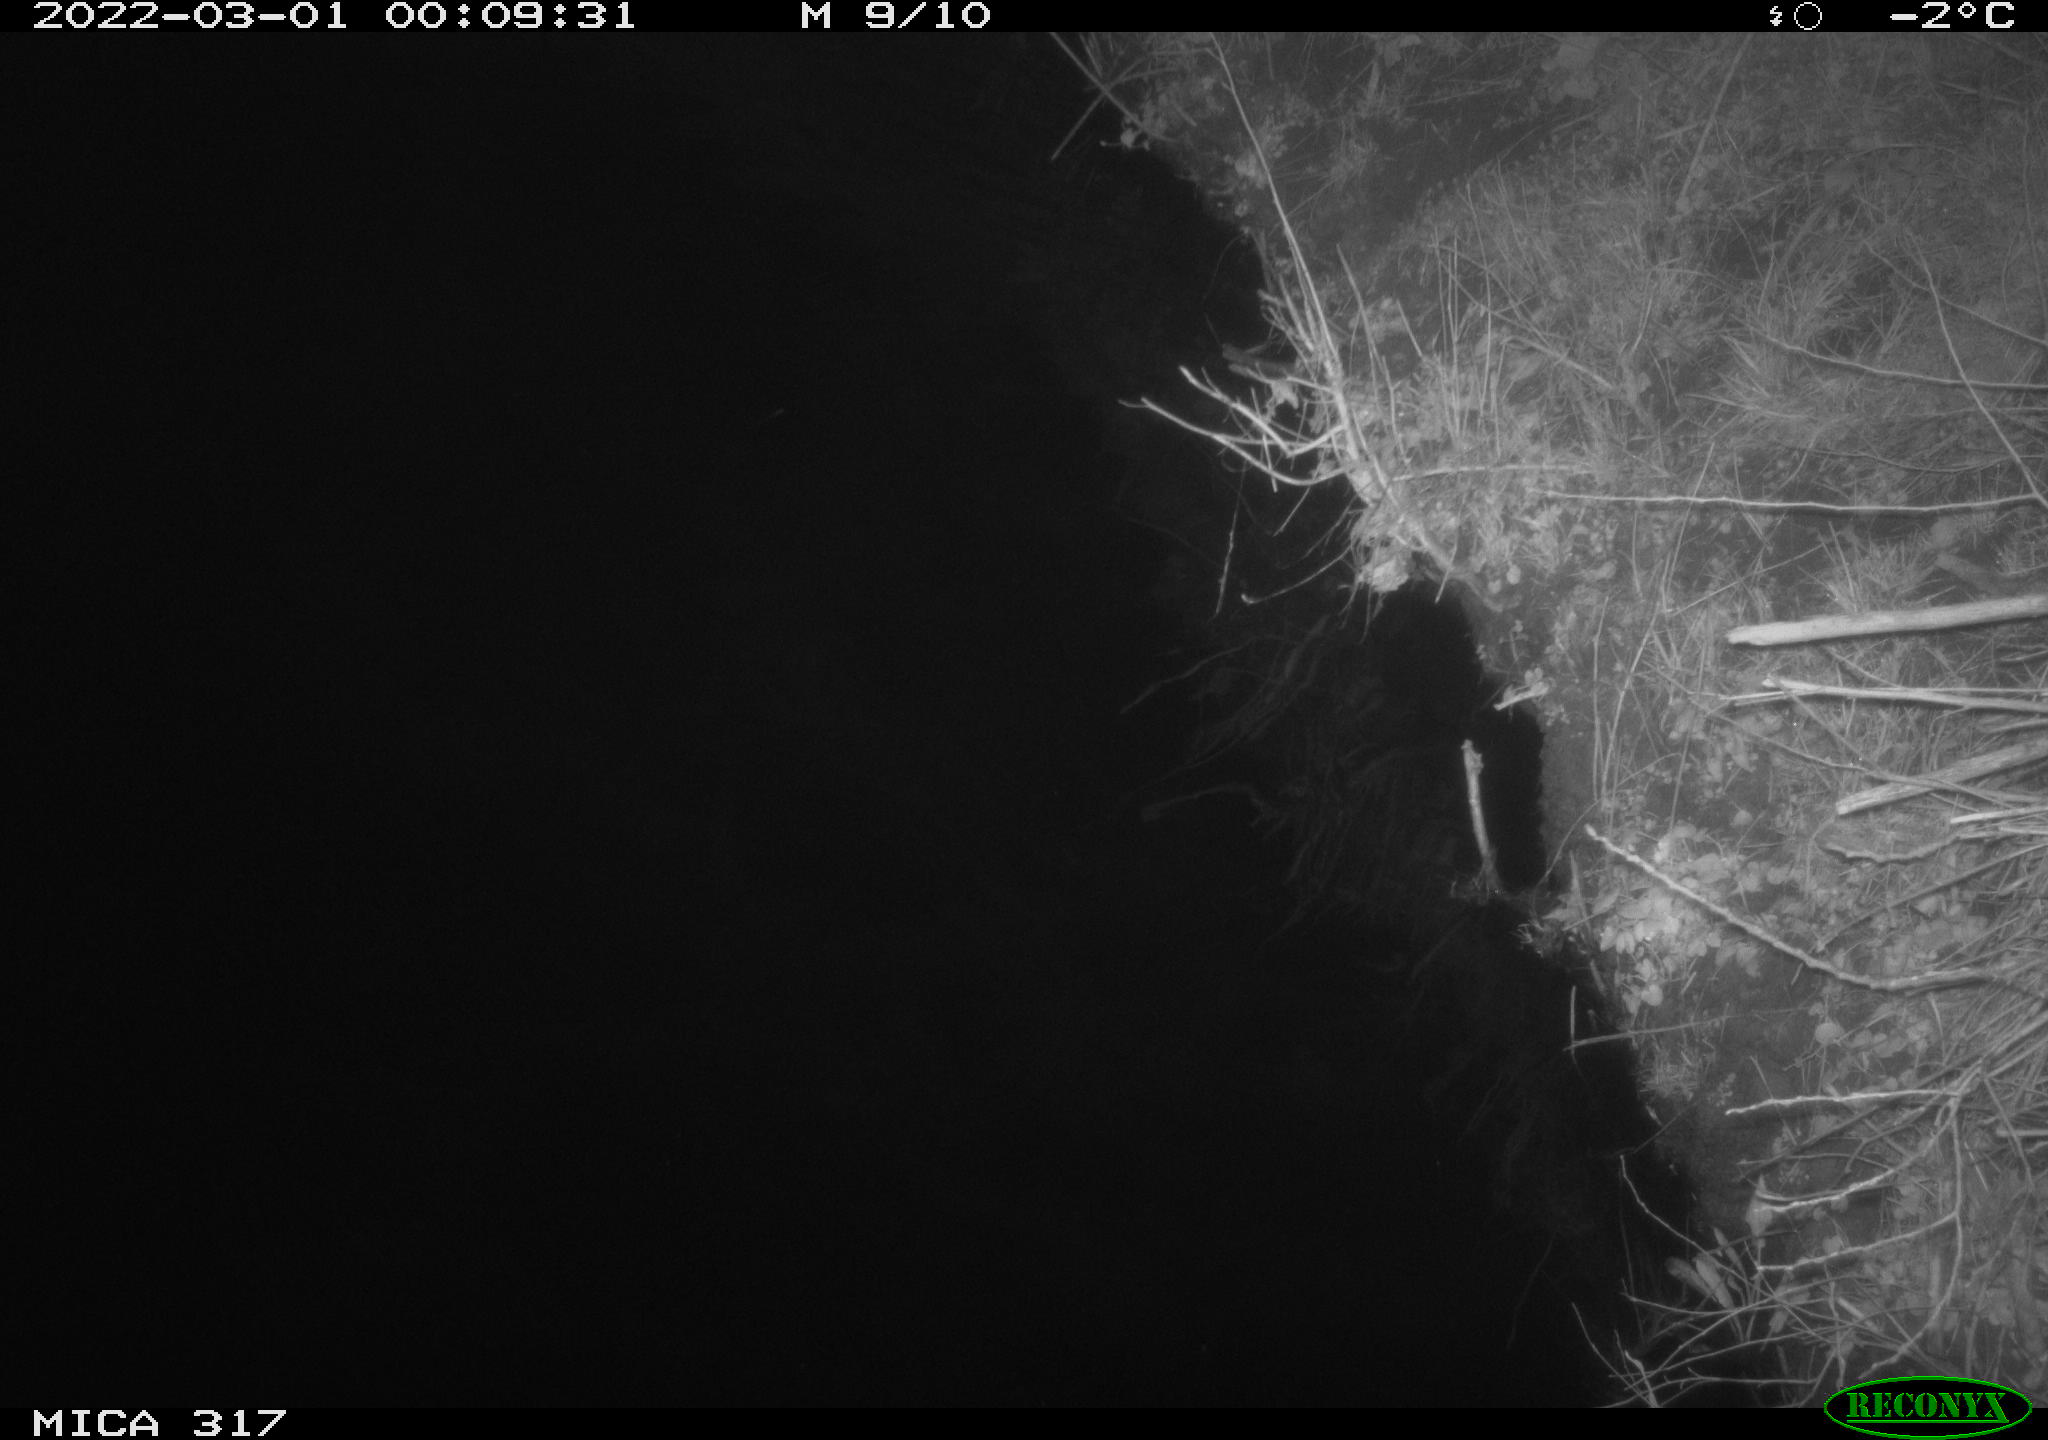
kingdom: Animalia
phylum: Chordata
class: Aves
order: Anseriformes
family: Anatidae
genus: Anas
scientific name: Anas platyrhynchos
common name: Mallard
